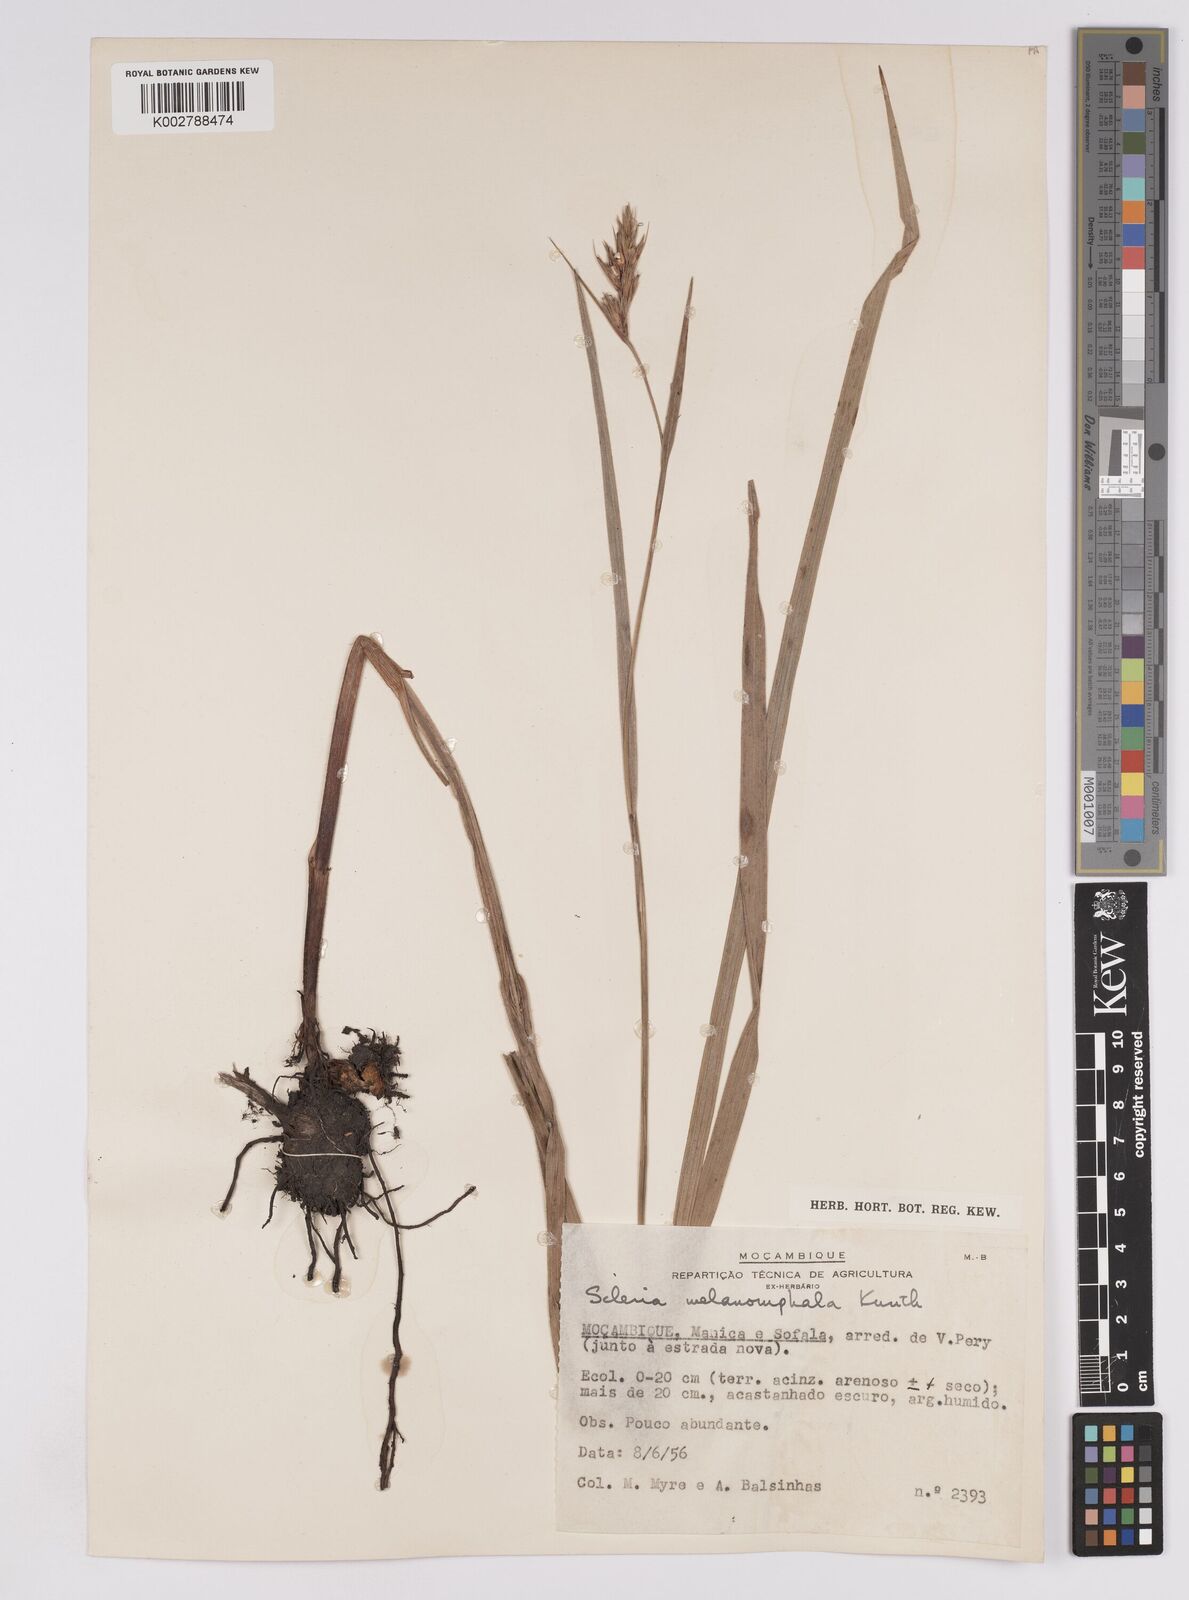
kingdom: Plantae
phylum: Tracheophyta
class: Liliopsida
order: Poales
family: Cyperaceae
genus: Scleria
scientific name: Scleria melanomphala
